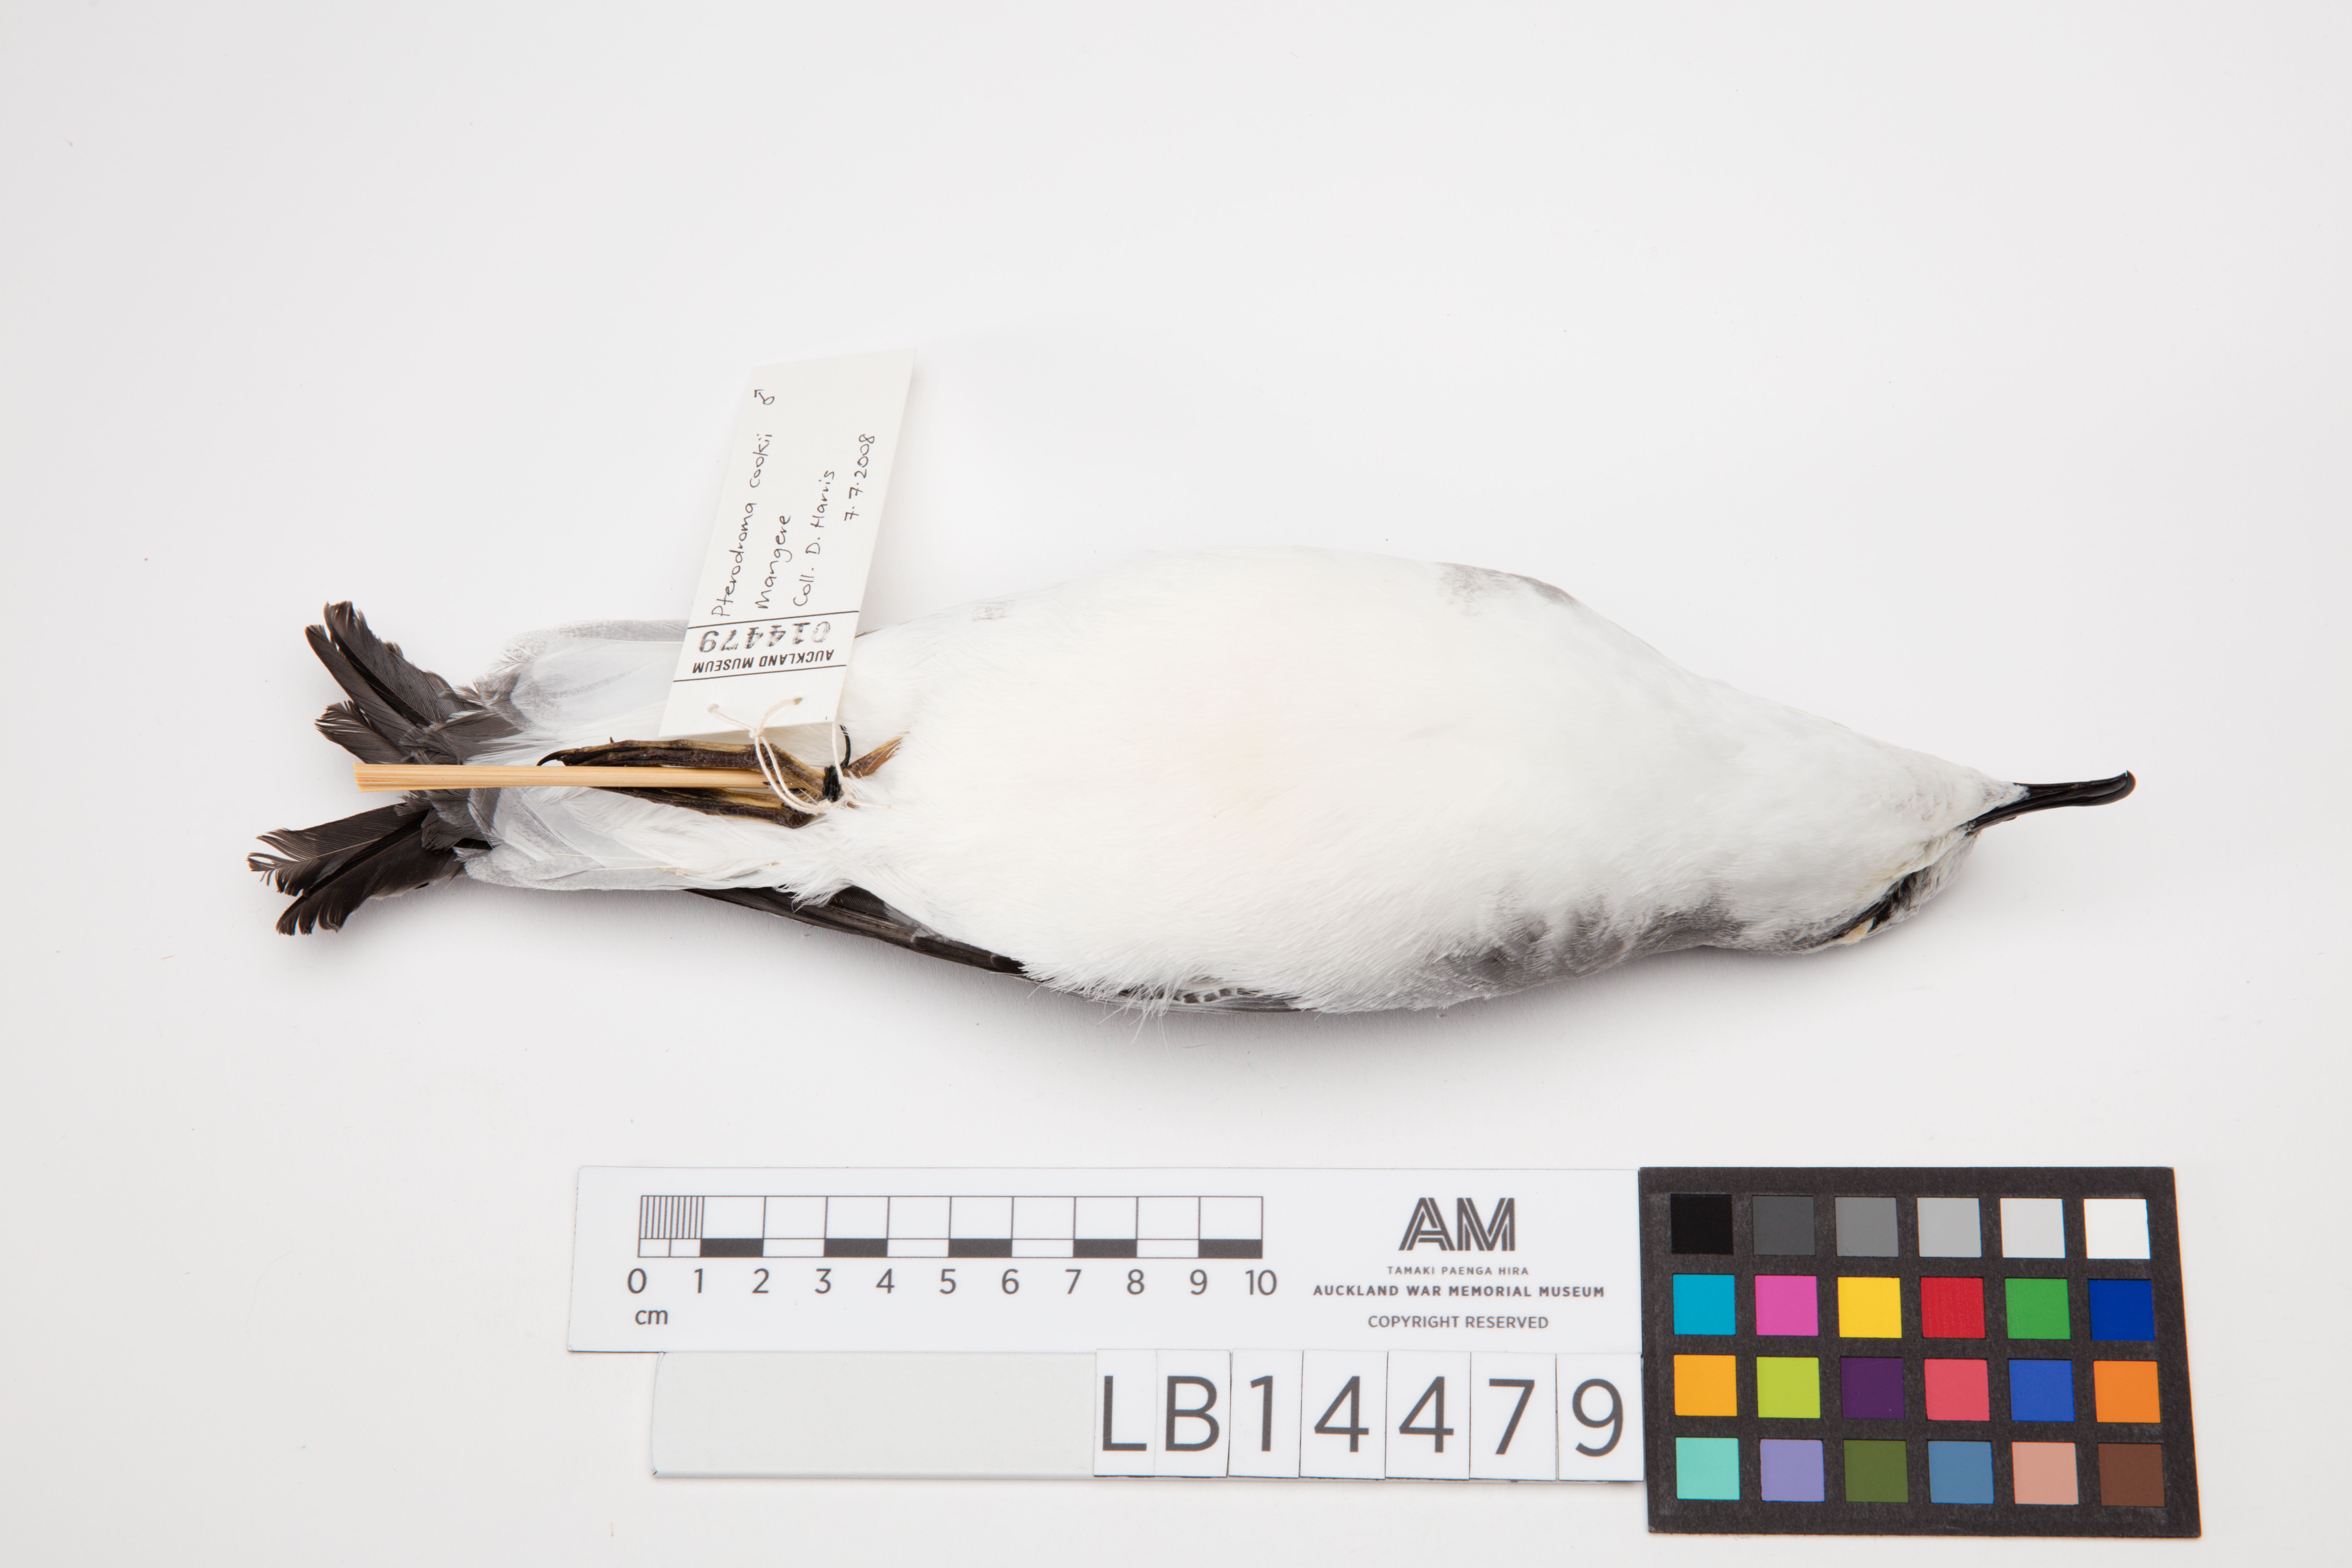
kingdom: Animalia
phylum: Chordata
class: Aves
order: Procellariiformes
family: Procellariidae
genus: Pterodroma
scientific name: Pterodroma cookii
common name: Cook's petrel
